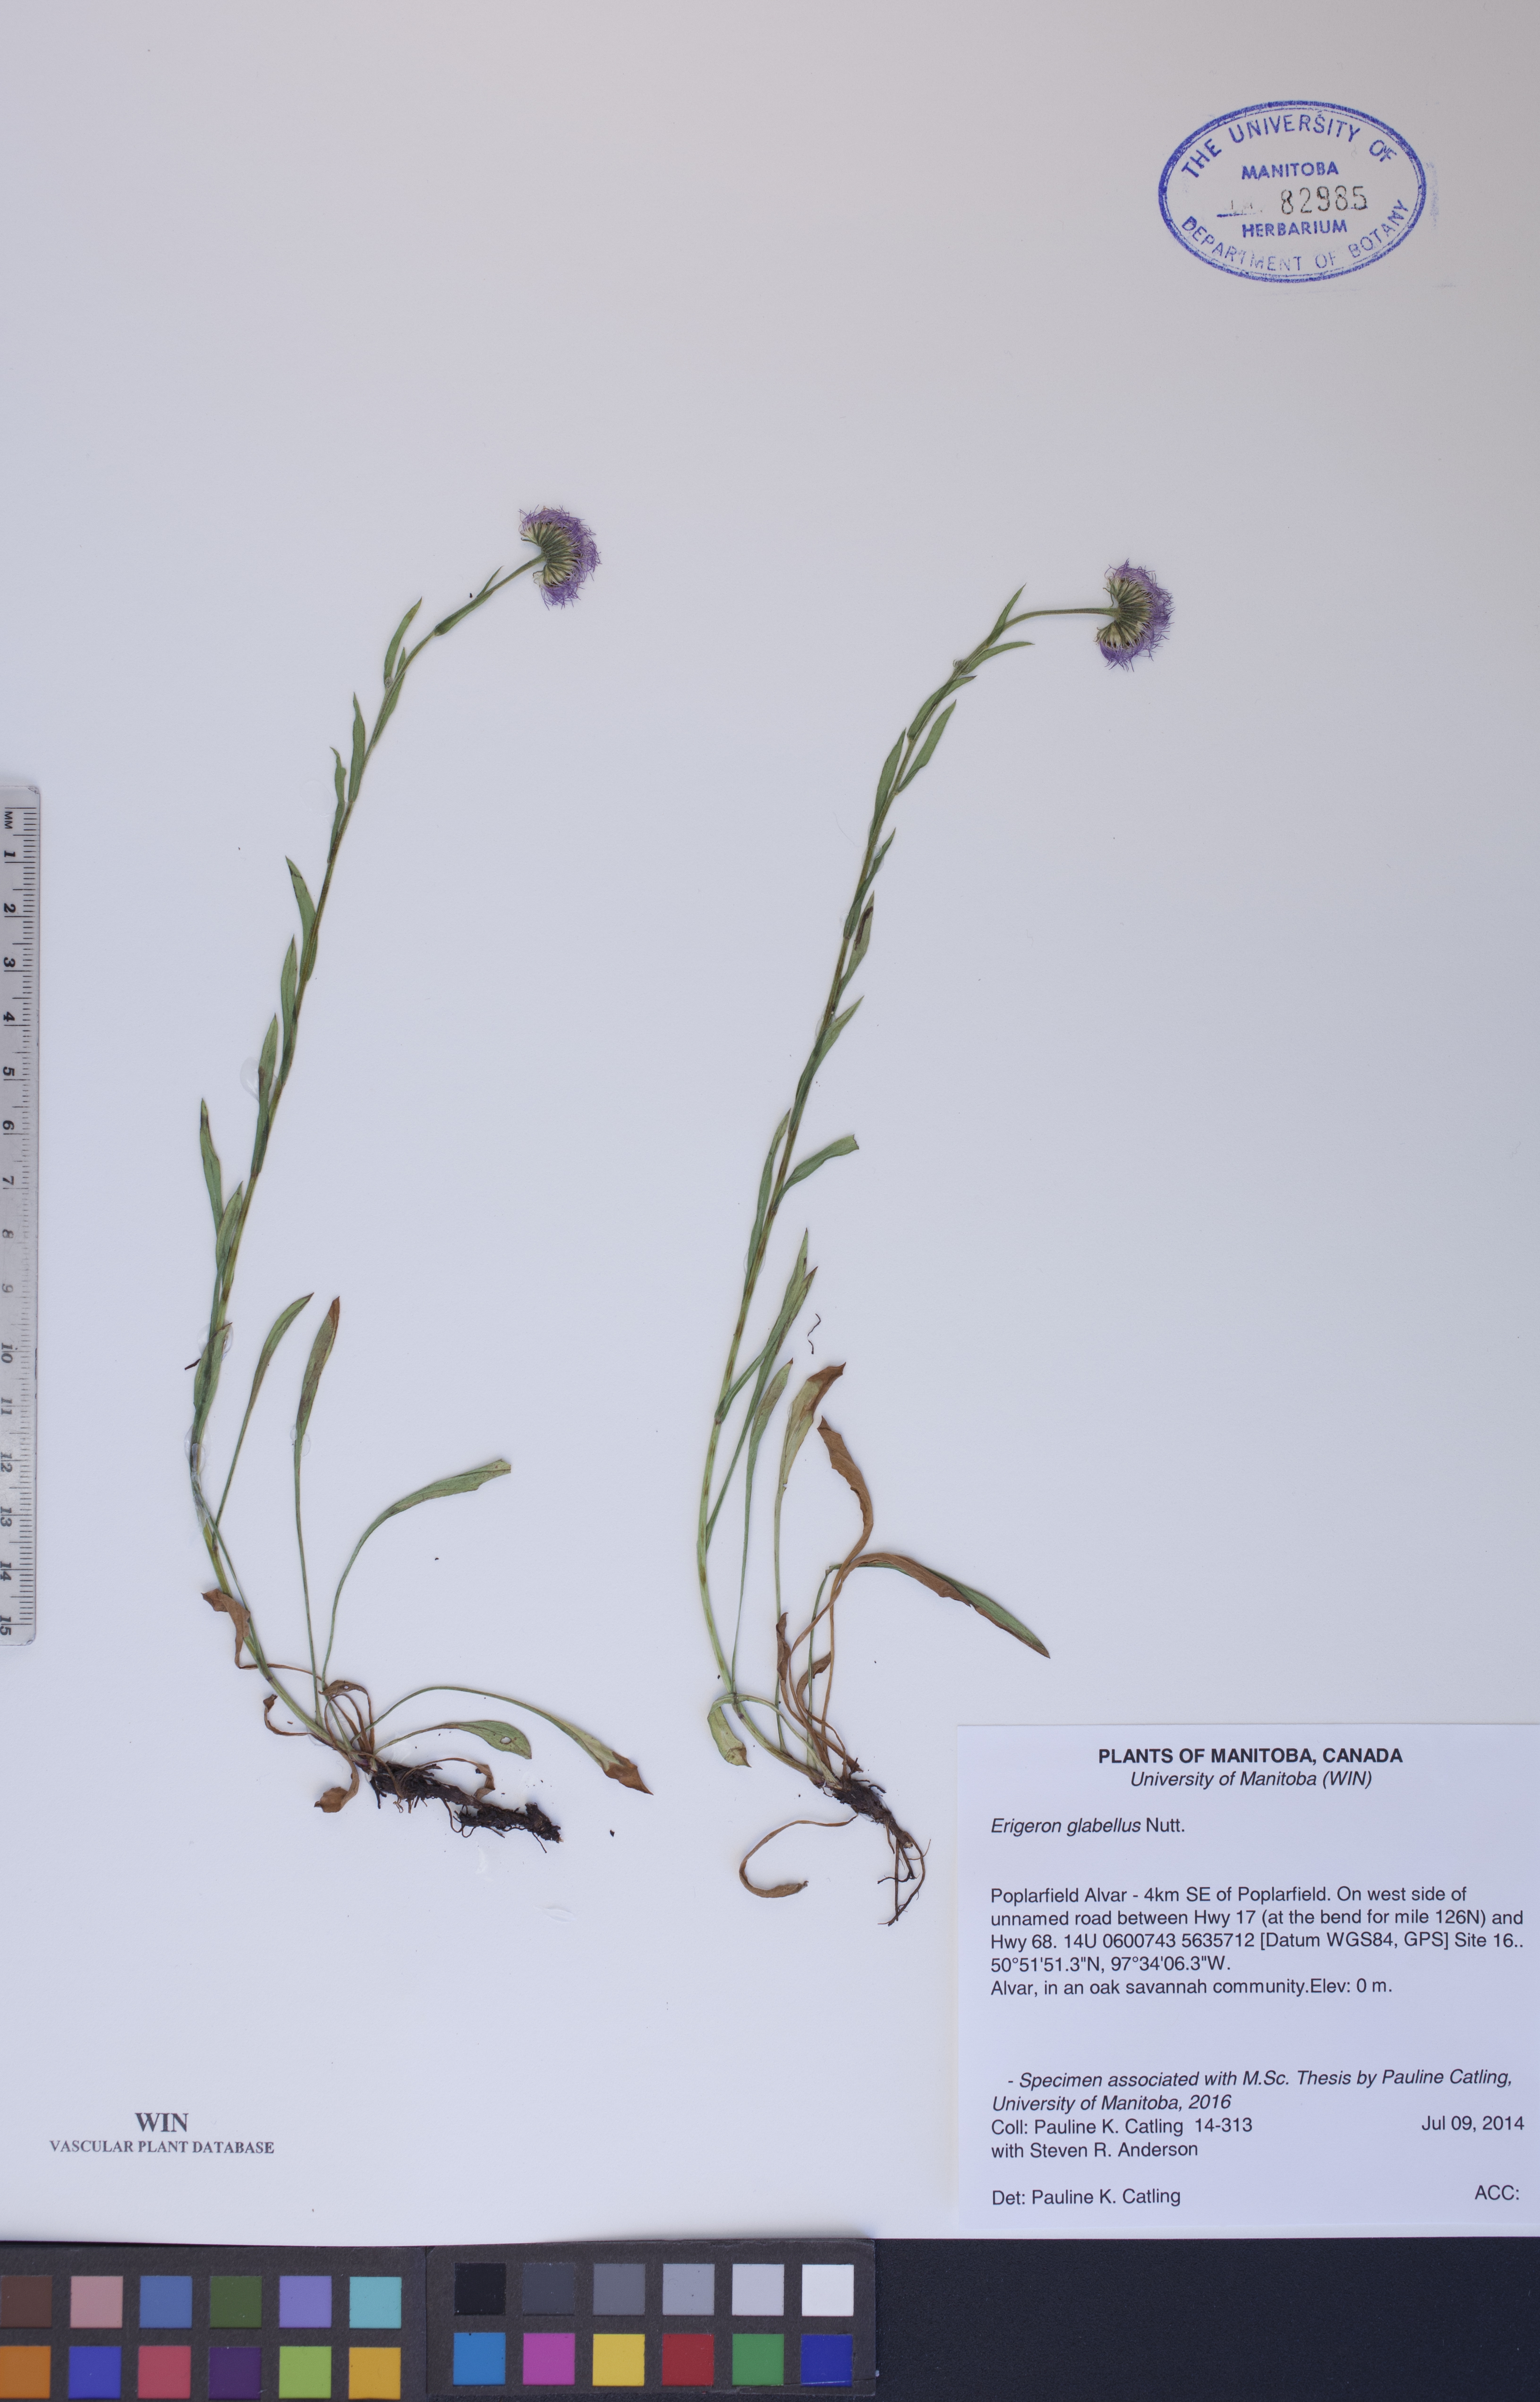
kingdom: Plantae
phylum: Tracheophyta
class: Magnoliopsida
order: Asterales
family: Asteraceae
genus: Erigeron
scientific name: Erigeron glabellus
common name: Smooth fleabane
